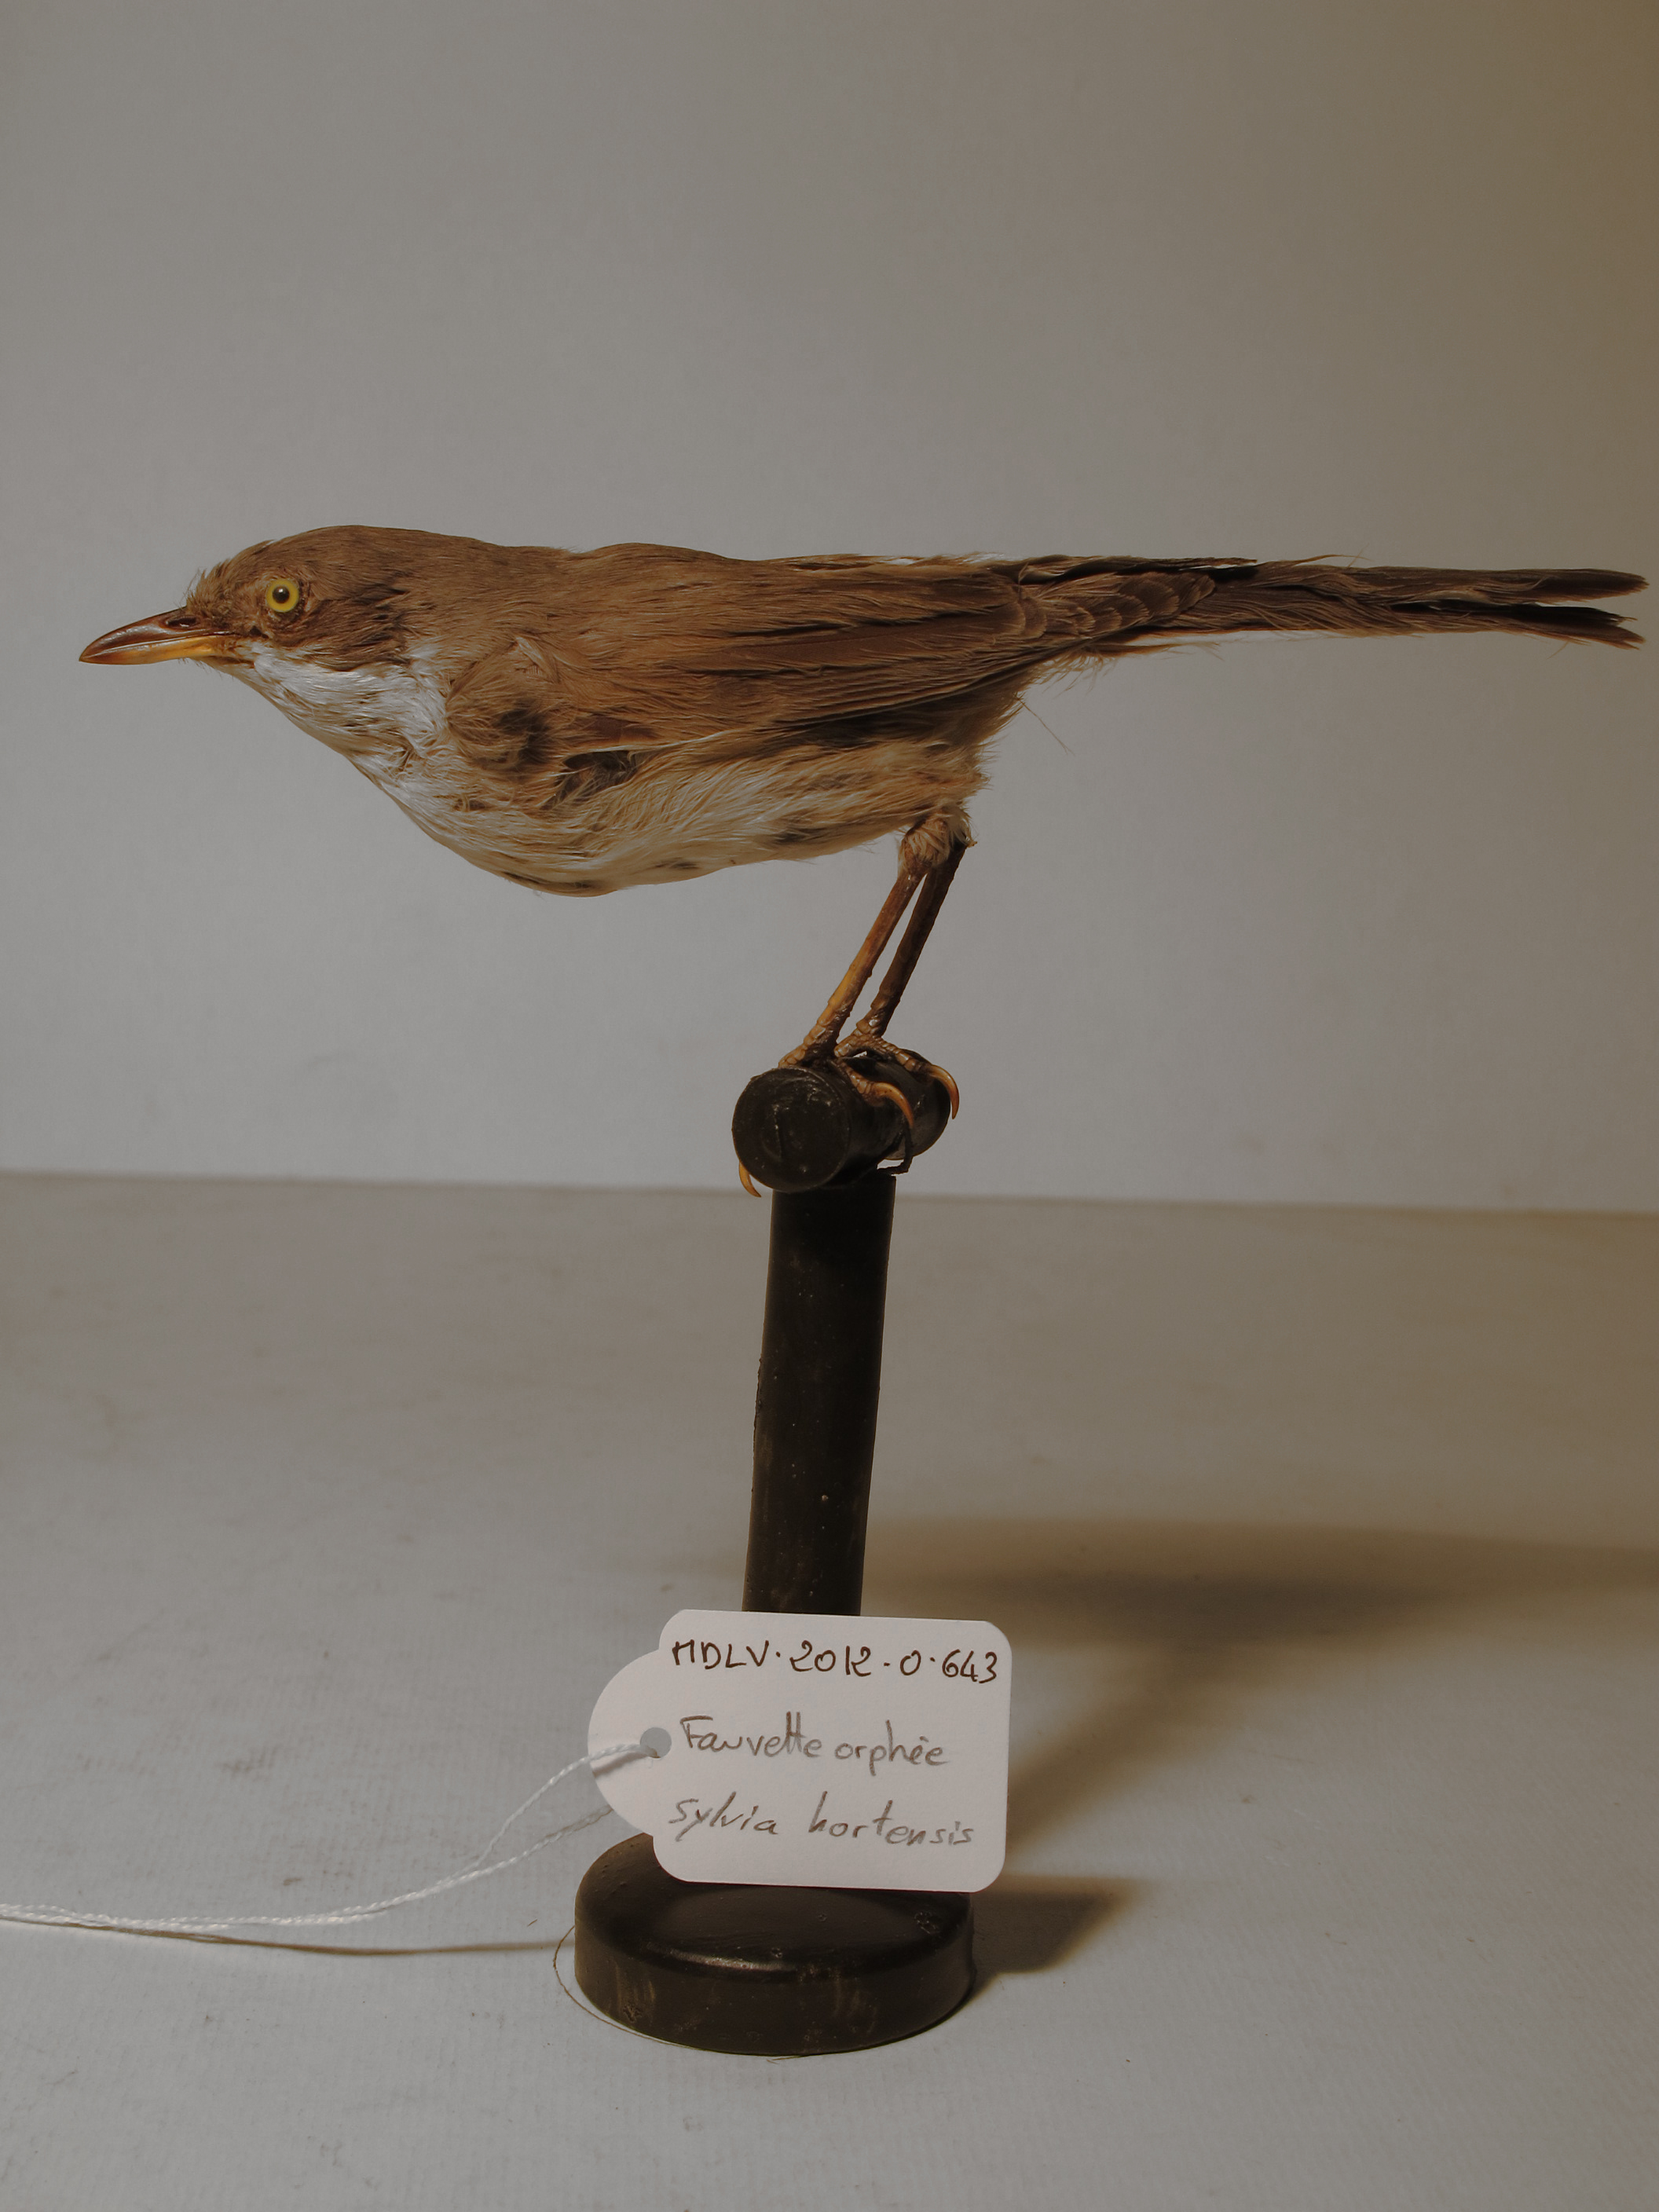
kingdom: Animalia
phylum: Chordata
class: Aves
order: Passeriformes
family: Sylviidae
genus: Sylvia
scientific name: Sylvia hortensis
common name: Orphean Warbler
